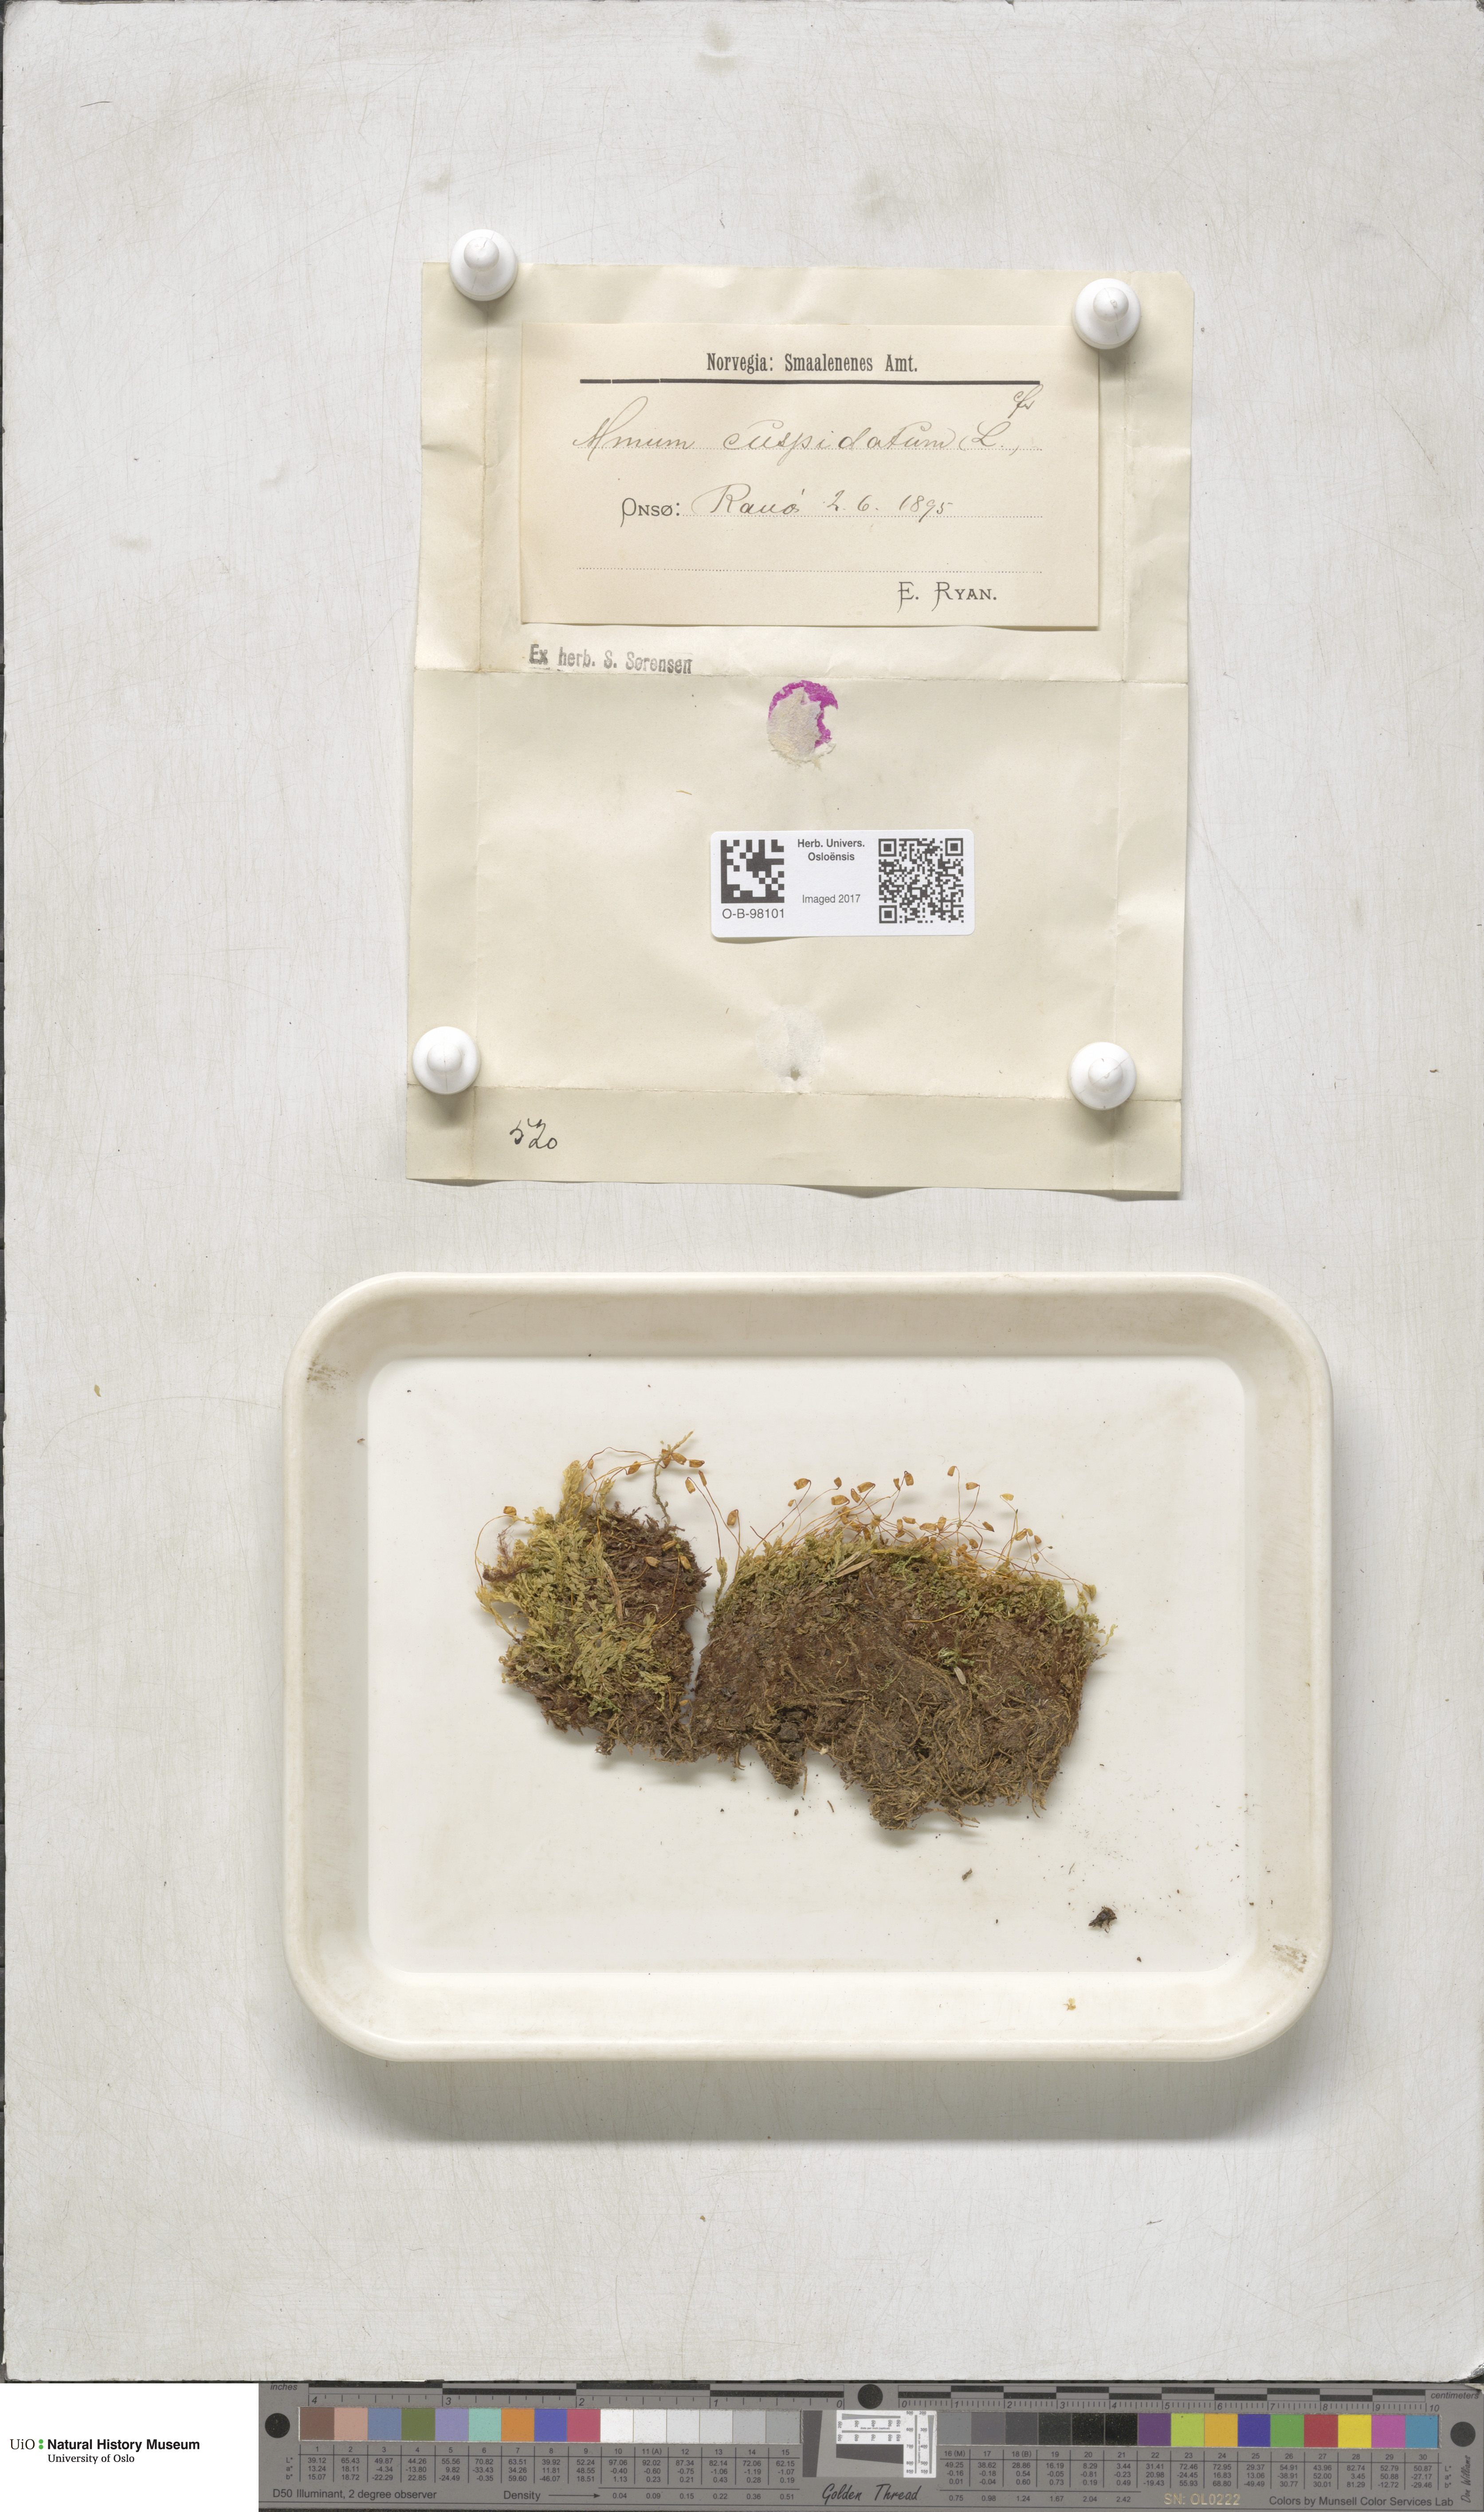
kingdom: Plantae
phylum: Bryophyta
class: Bryopsida
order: Bryales
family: Mniaceae
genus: Plagiomnium
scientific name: Plagiomnium cuspidatum
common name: Woodsy leafy moss
